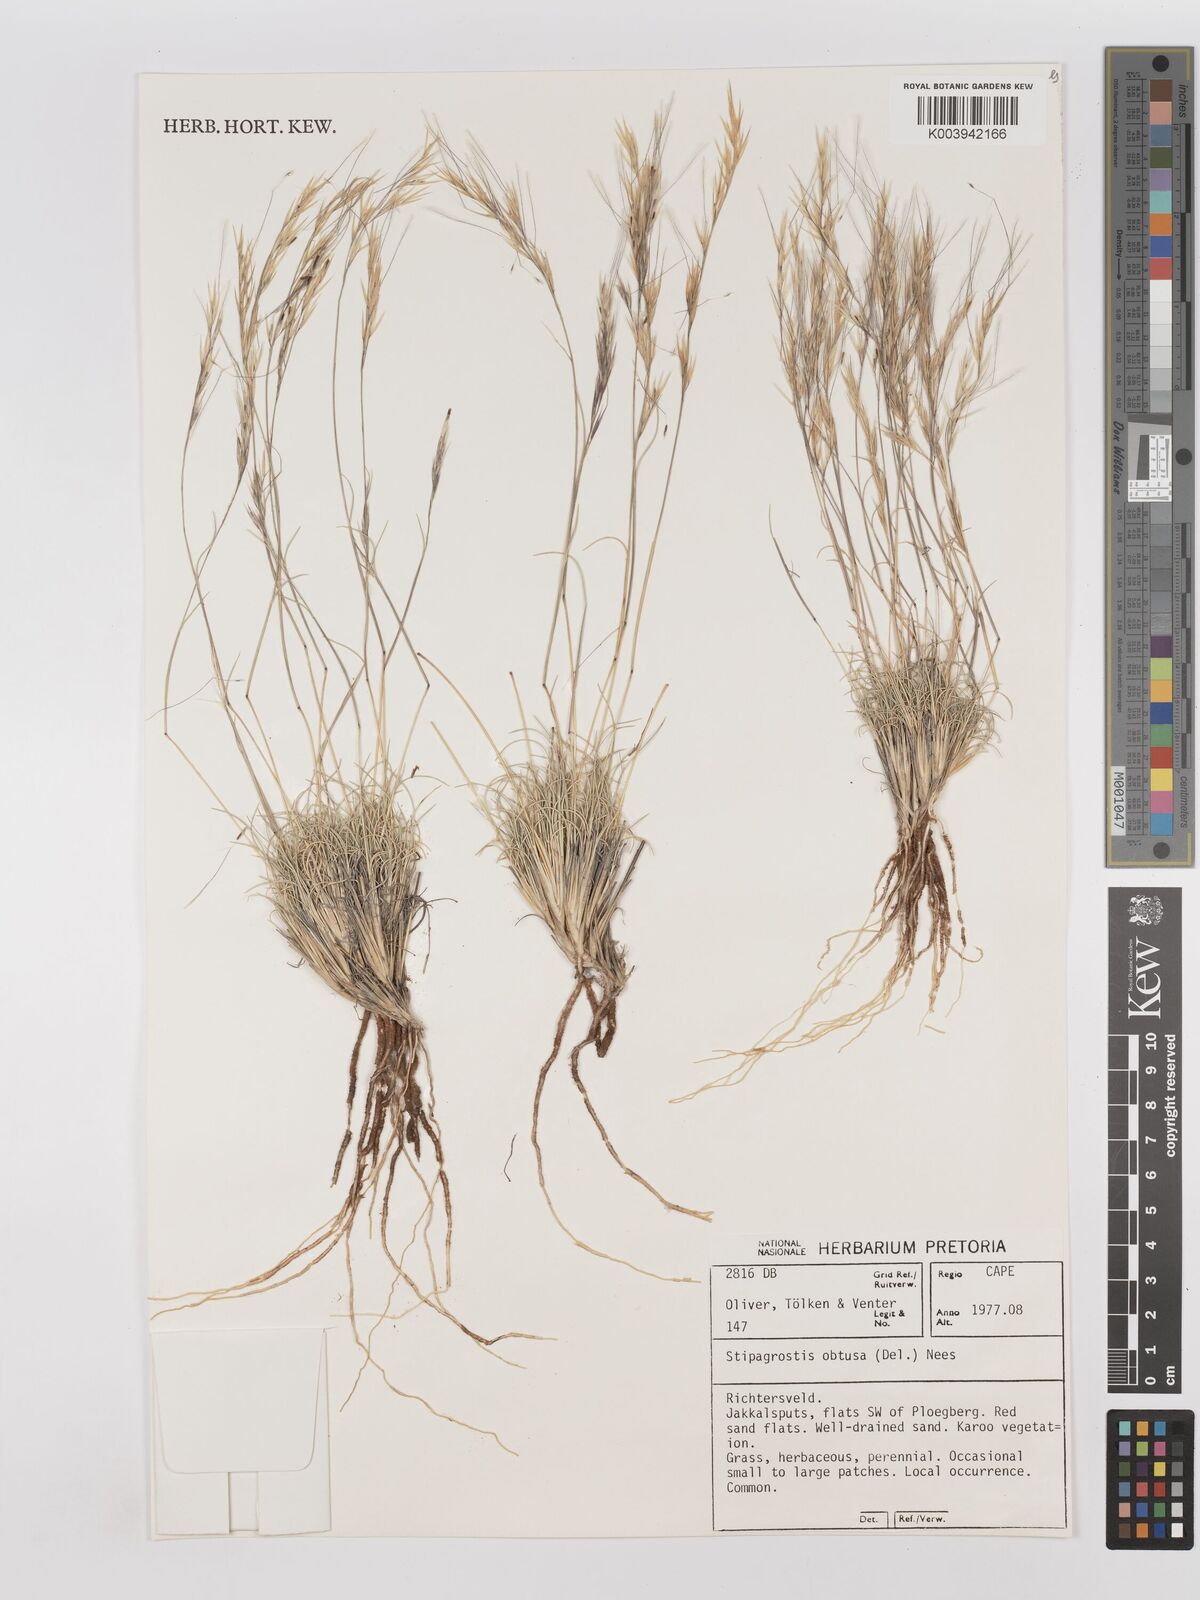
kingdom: Plantae
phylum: Tracheophyta
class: Liliopsida
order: Poales
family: Poaceae
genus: Stipagrostis
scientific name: Stipagrostis obtusa
